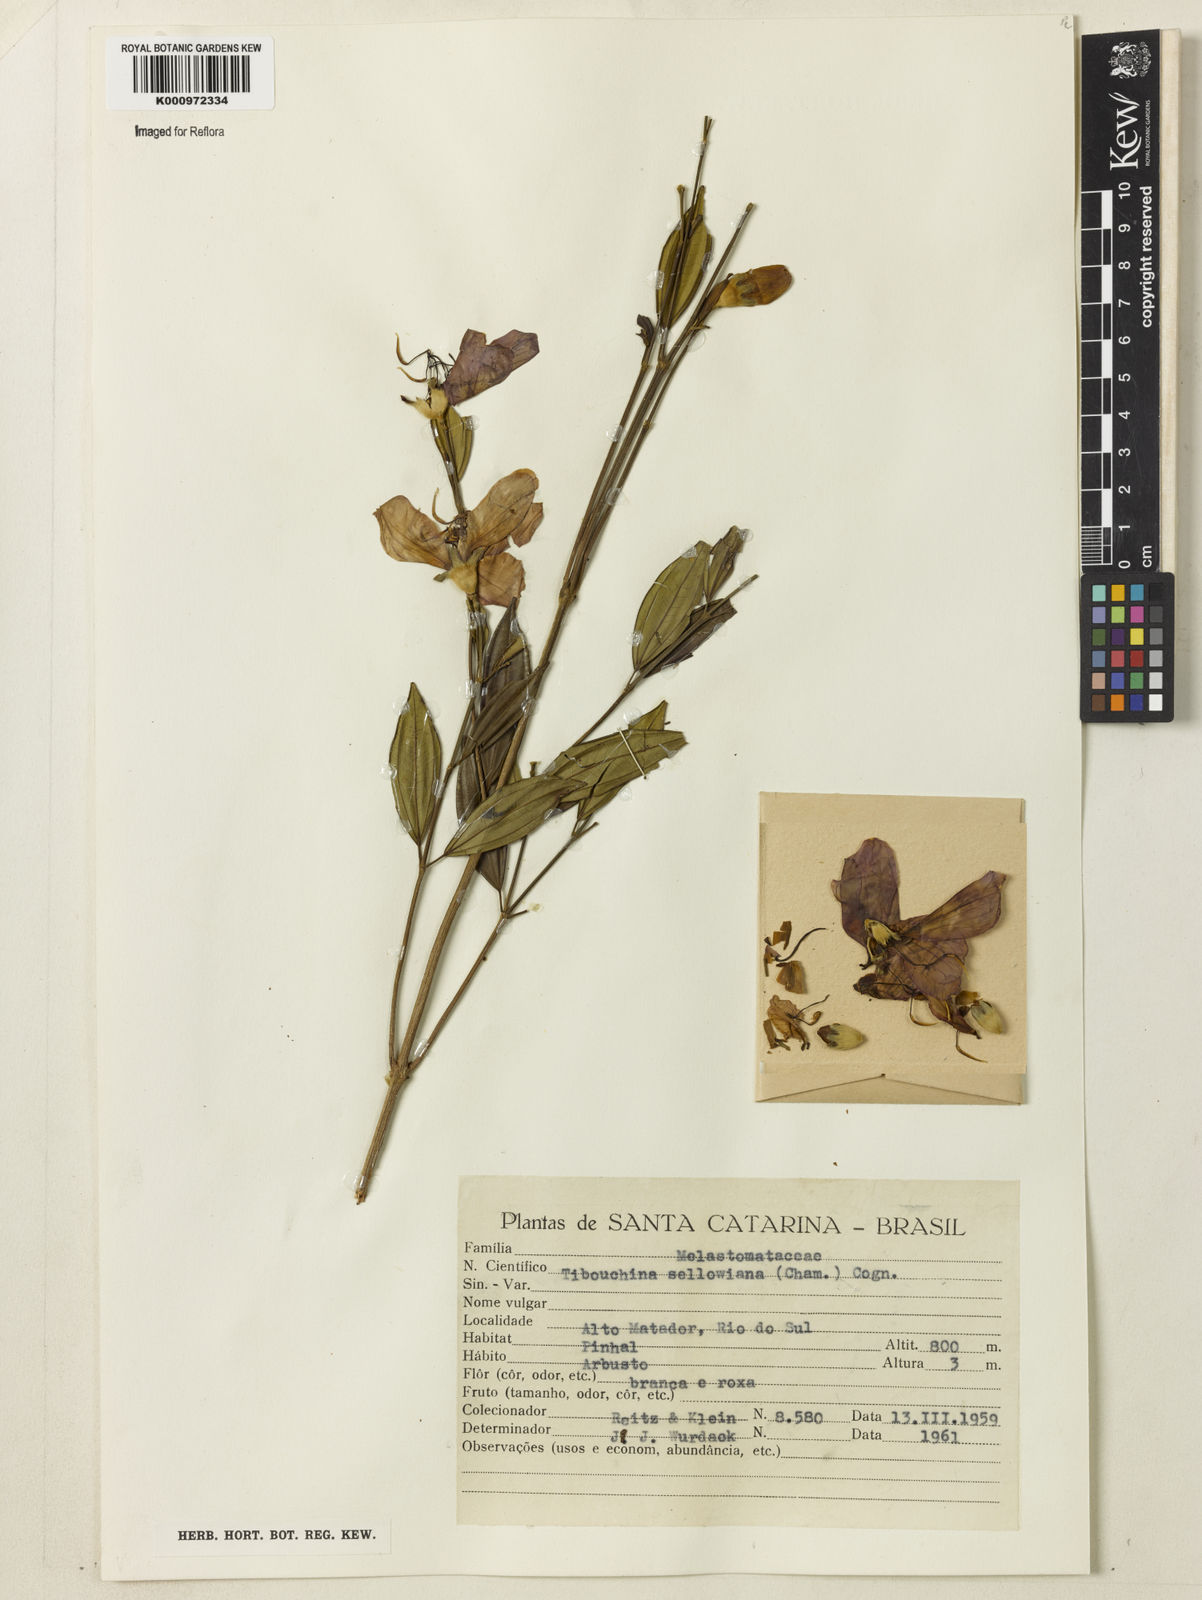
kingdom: Plantae
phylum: Tracheophyta
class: Magnoliopsida
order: Myrtales
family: Melastomataceae
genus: Pleroma
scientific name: Pleroma sellowianum
